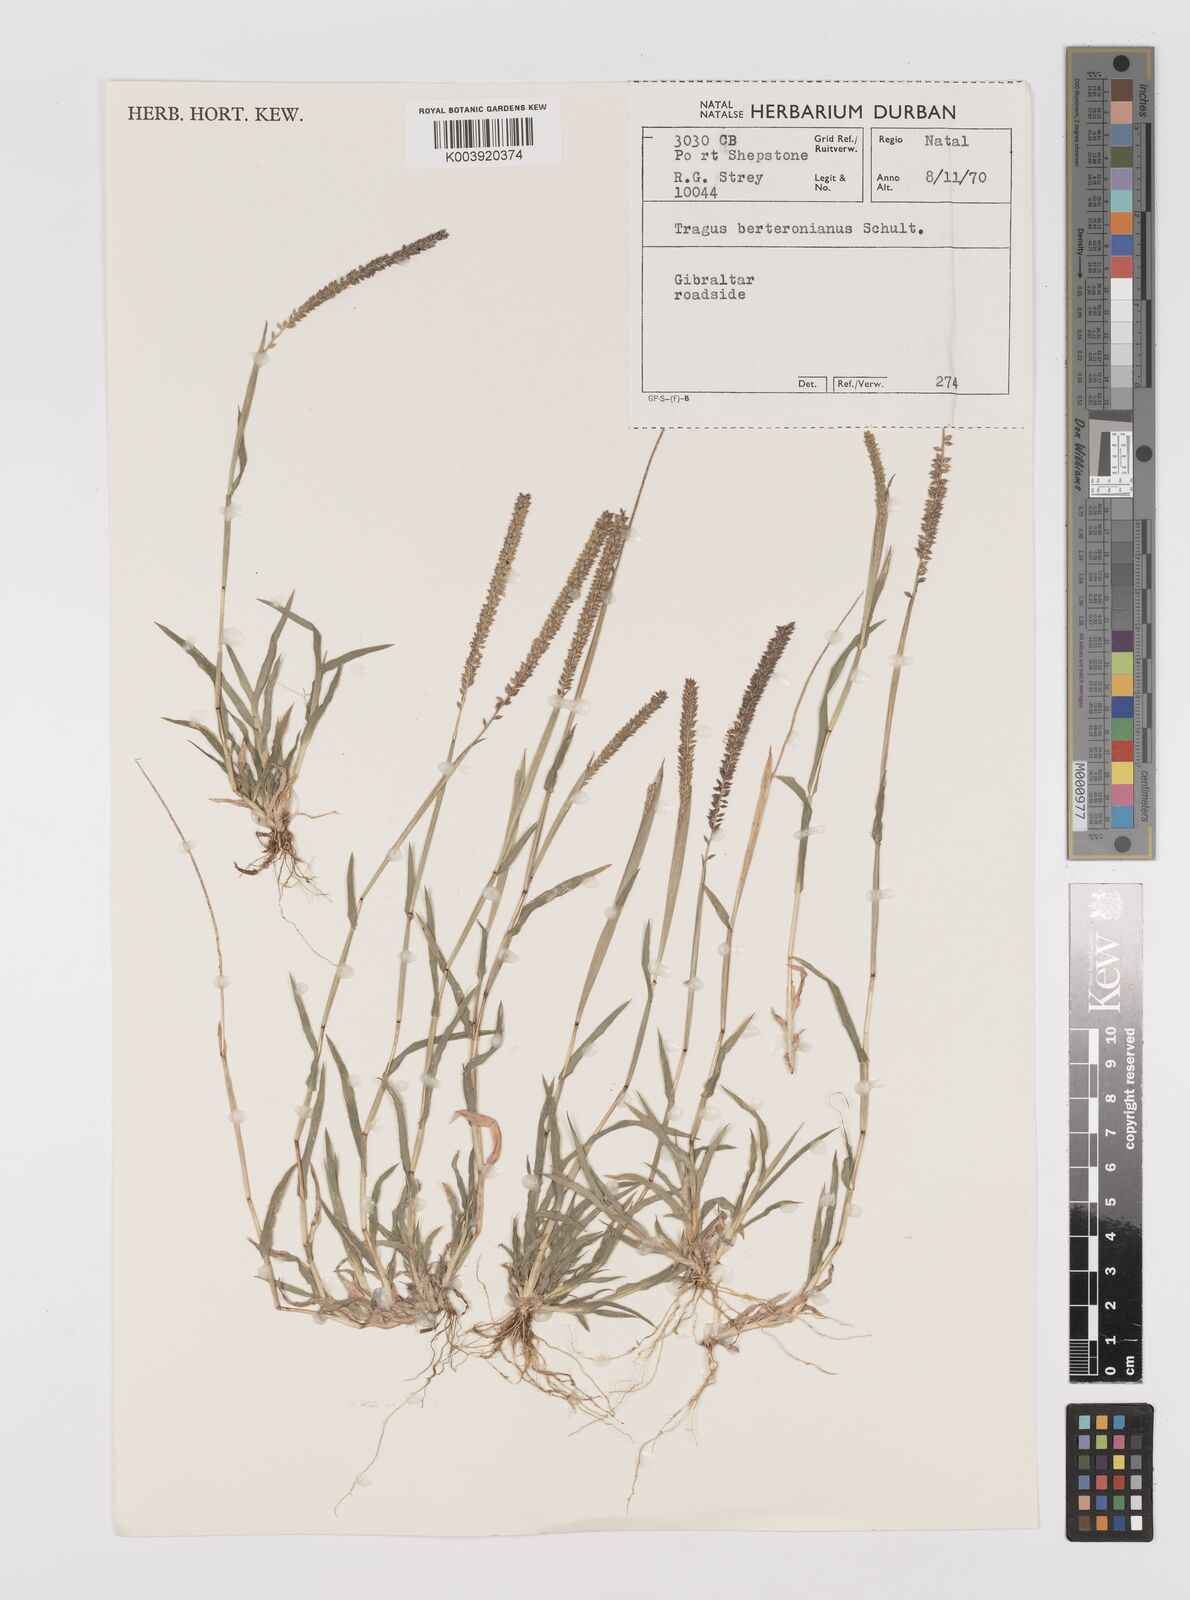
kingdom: Plantae
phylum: Tracheophyta
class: Liliopsida
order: Poales
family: Poaceae
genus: Tragus
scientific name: Tragus berteronianus
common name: African bur-grass
